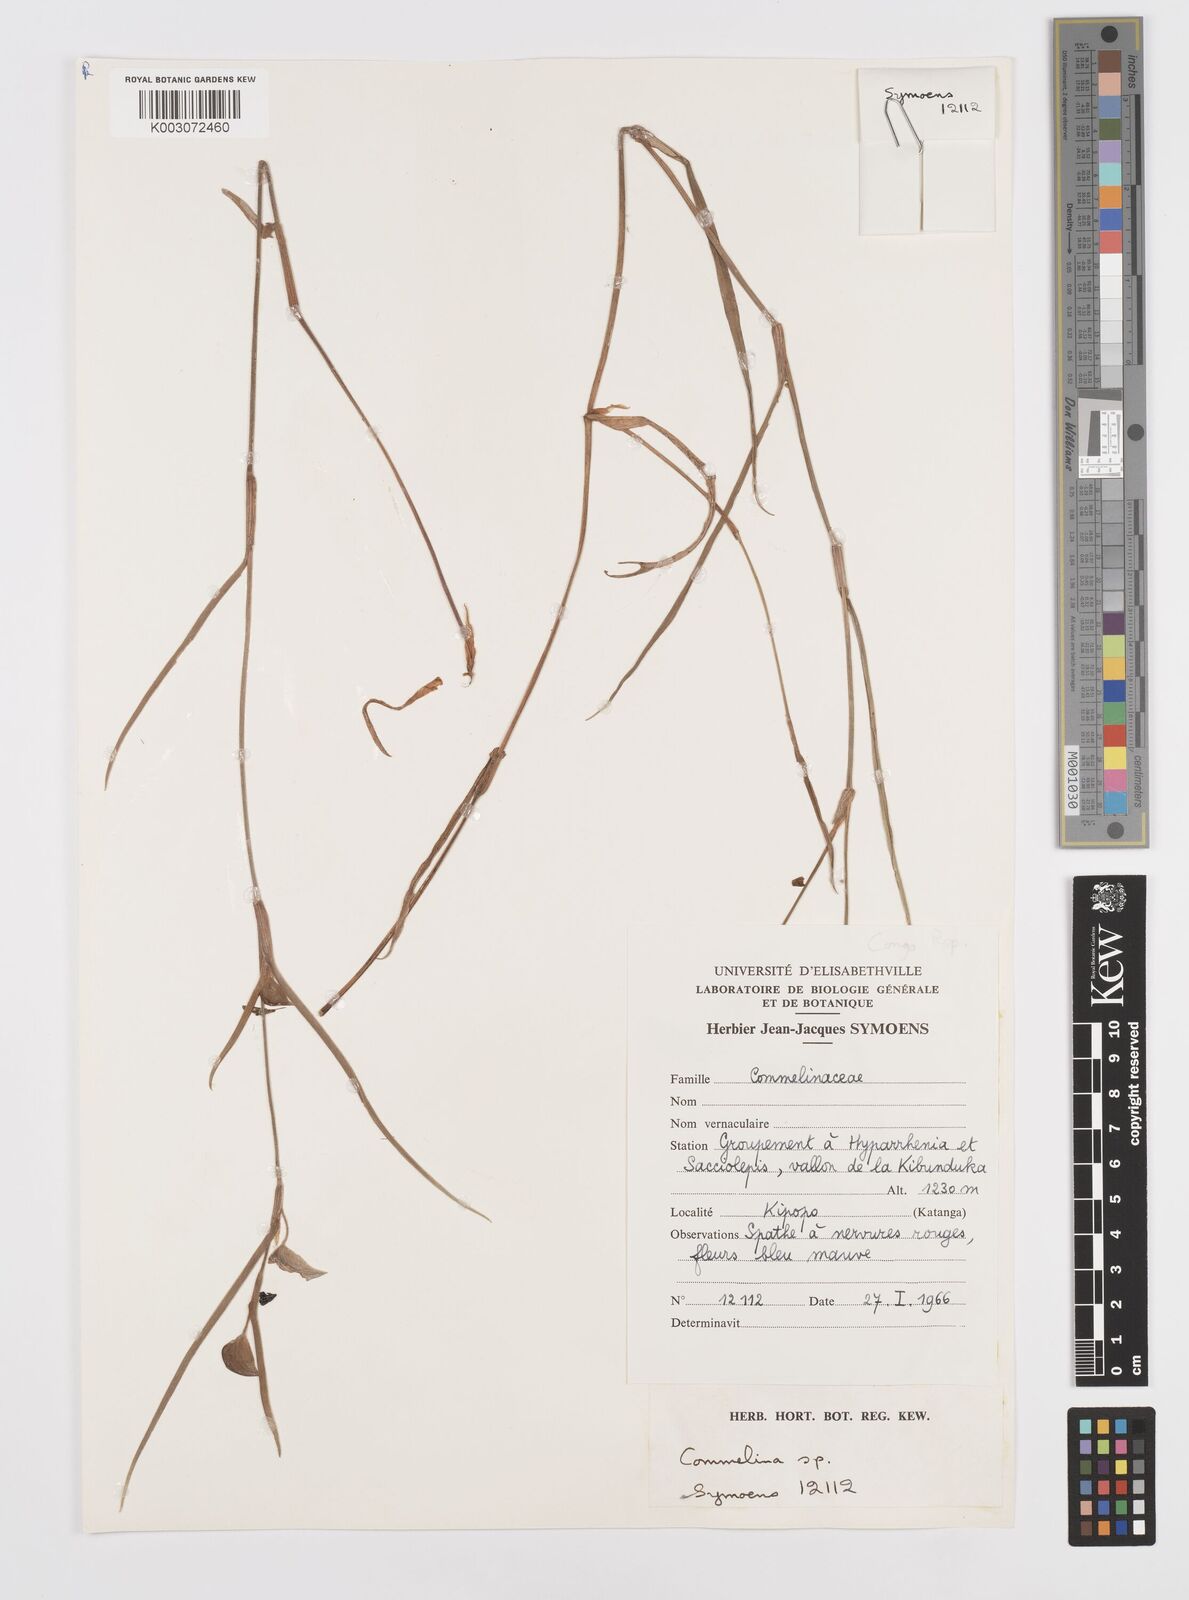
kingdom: Plantae
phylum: Tracheophyta
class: Liliopsida
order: Commelinales
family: Commelinaceae
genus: Commelina
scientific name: Commelina
